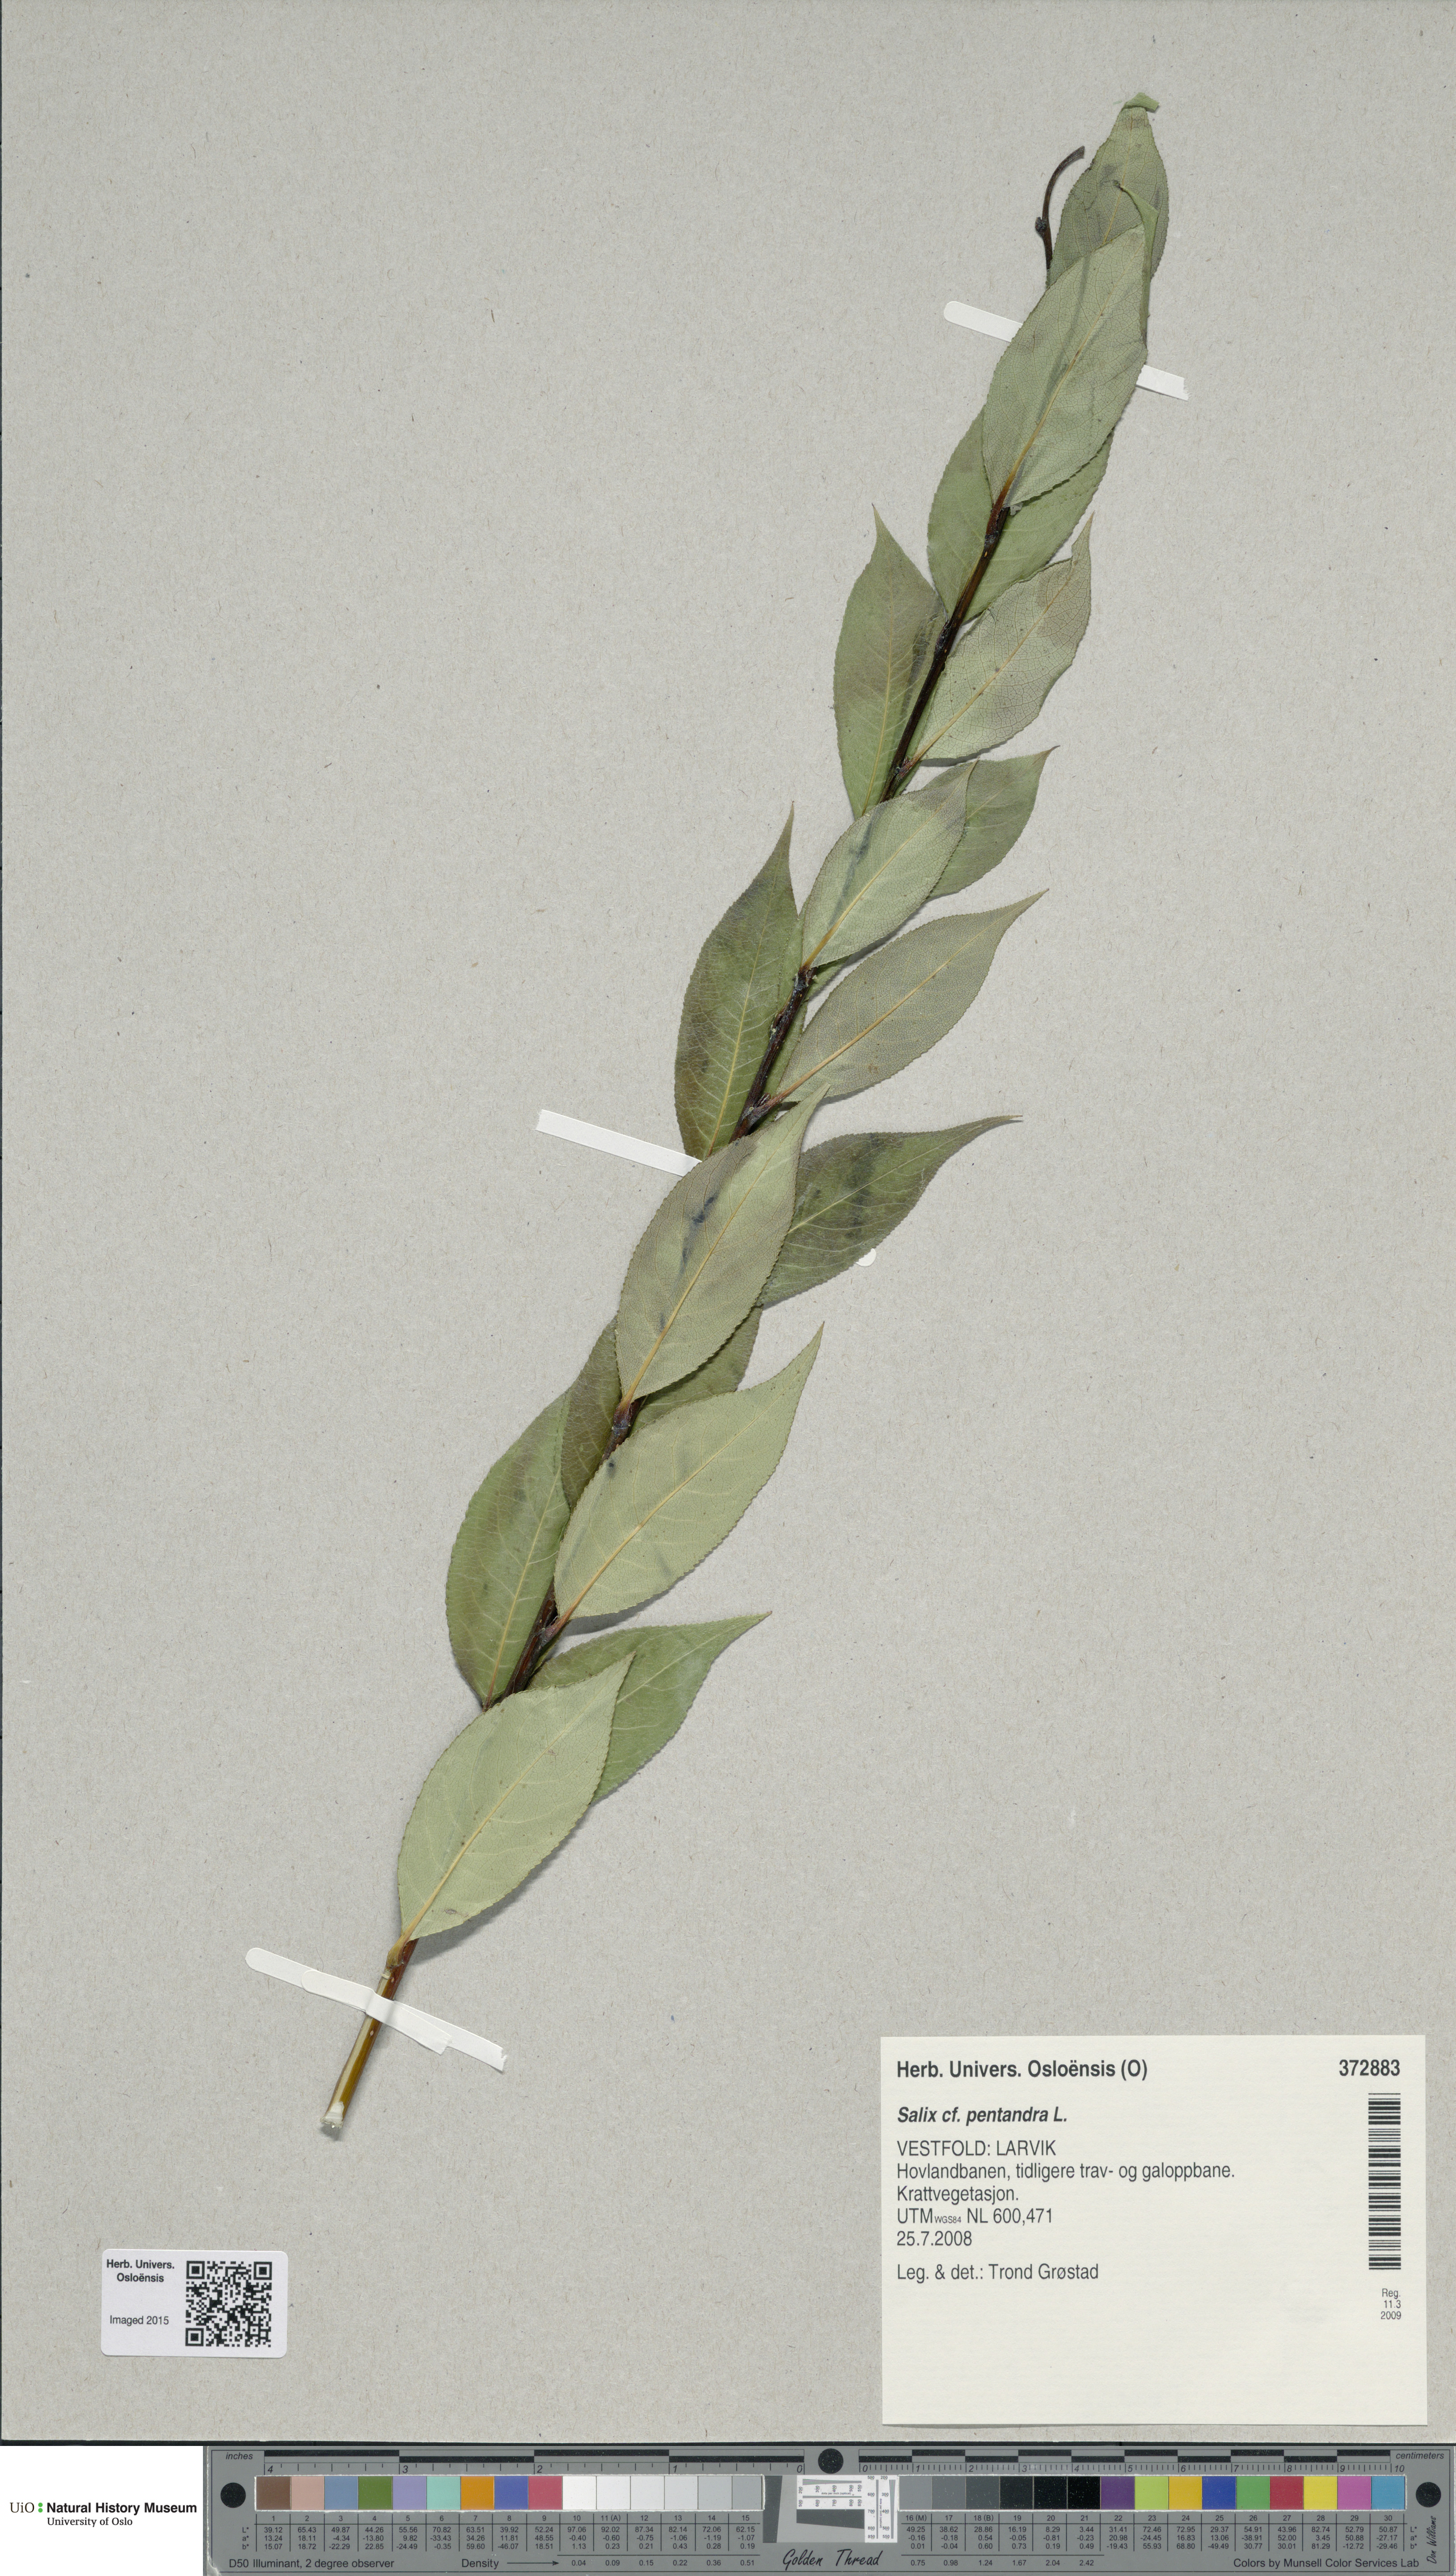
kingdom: Plantae
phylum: Tracheophyta
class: Magnoliopsida
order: Malpighiales
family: Salicaceae
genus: Salix
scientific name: Salix pentandra
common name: Bay willow
